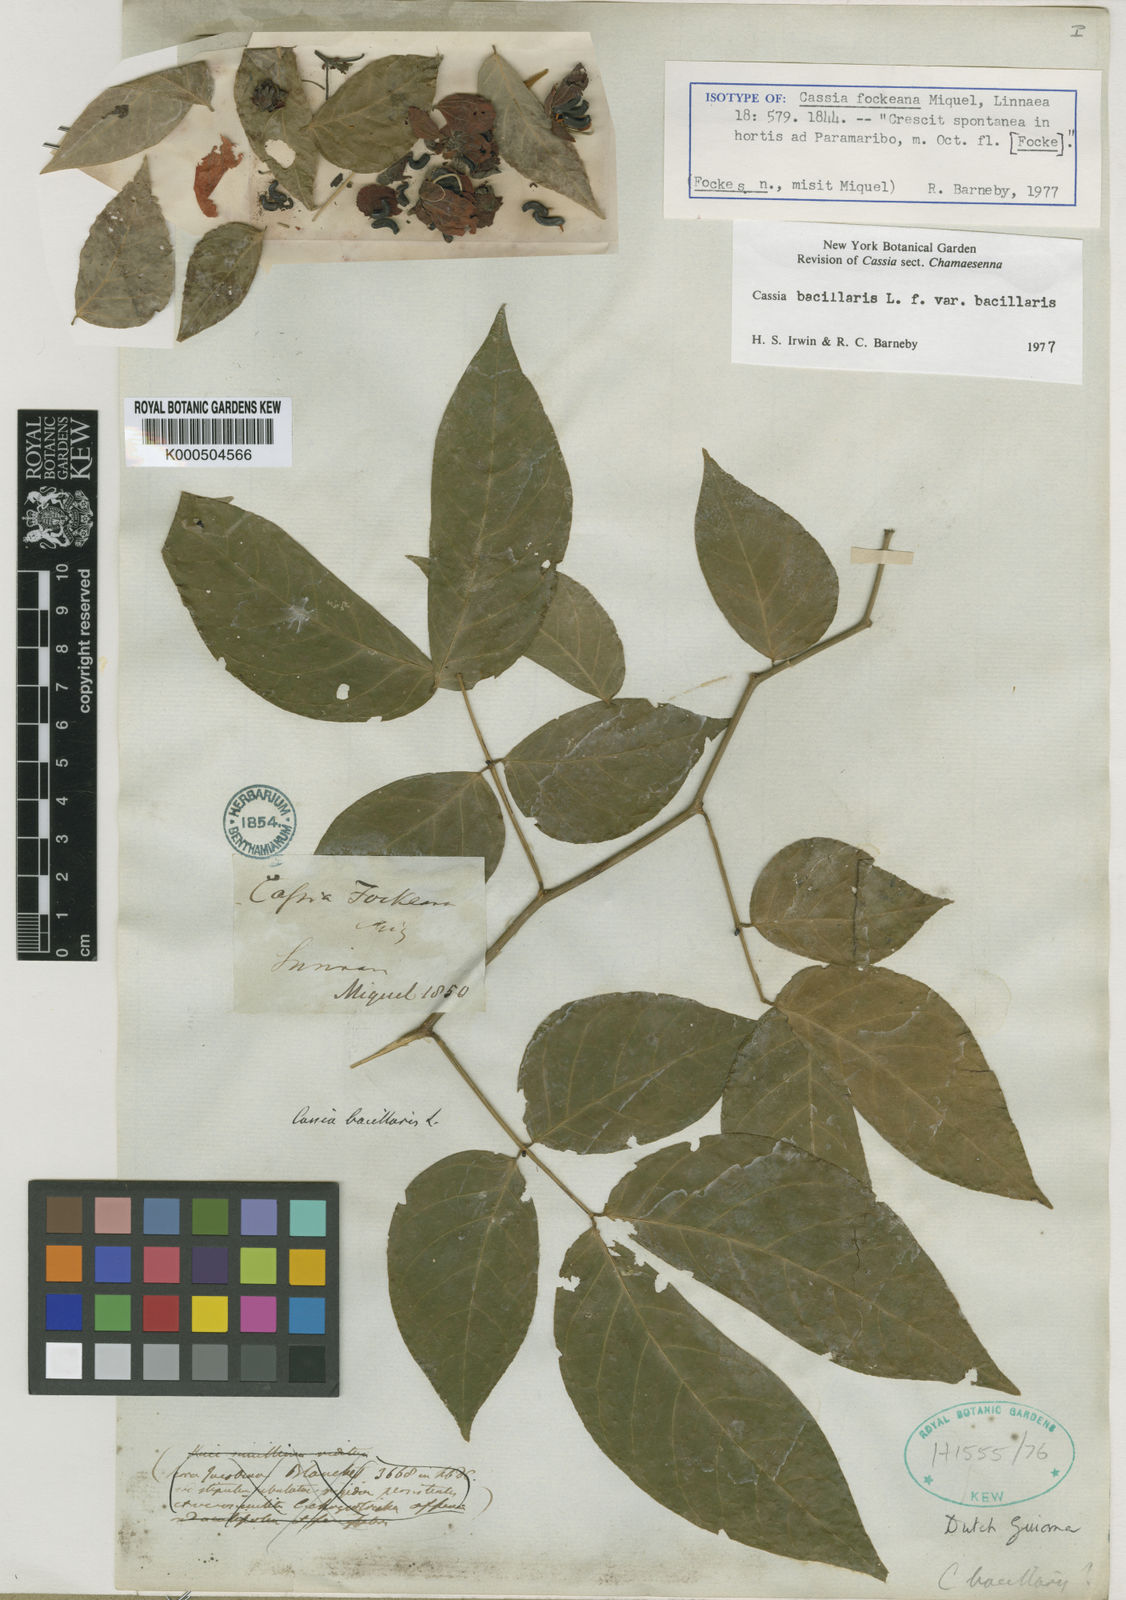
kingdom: Plantae
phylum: Tracheophyta
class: Magnoliopsida
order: Fabales
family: Fabaceae
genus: Senna
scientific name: Senna bacillaris
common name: West indian showertree
